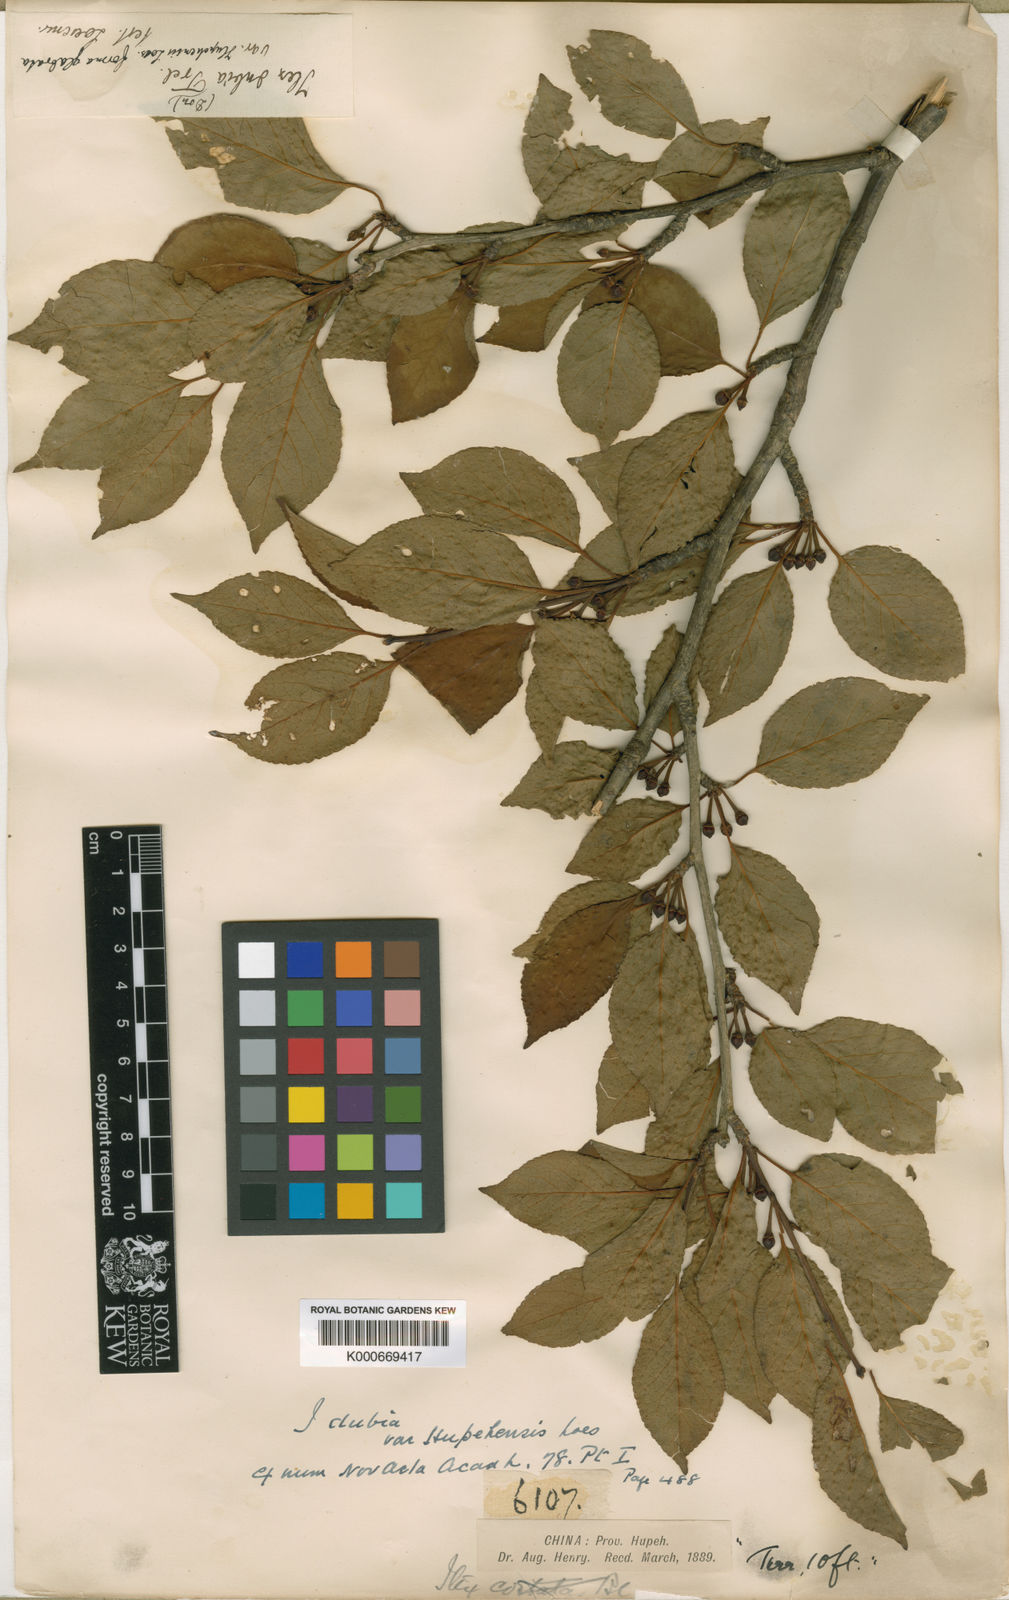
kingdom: Plantae
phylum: Tracheophyta
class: Magnoliopsida
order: Aquifoliales
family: Aquifoliaceae
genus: Ilex
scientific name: Ilex macrocarpa
